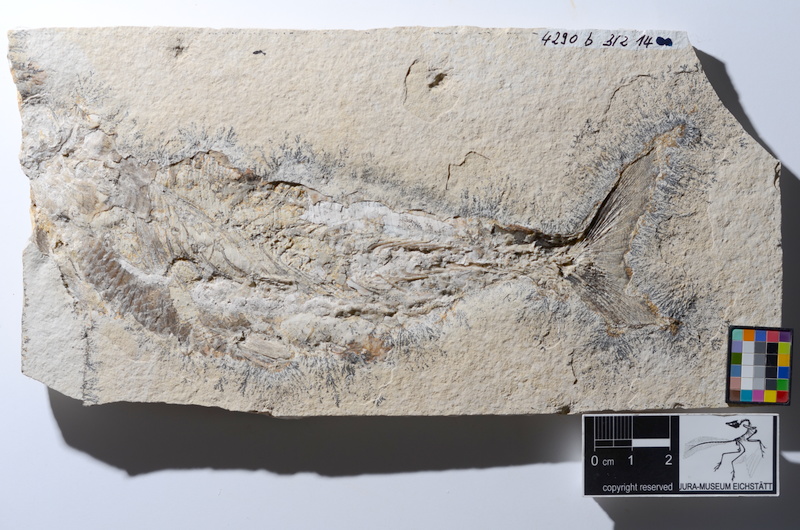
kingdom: Animalia
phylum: Chordata
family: Ankylophoridae
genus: Siemensichthys
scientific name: Siemensichthys macrocephalus
